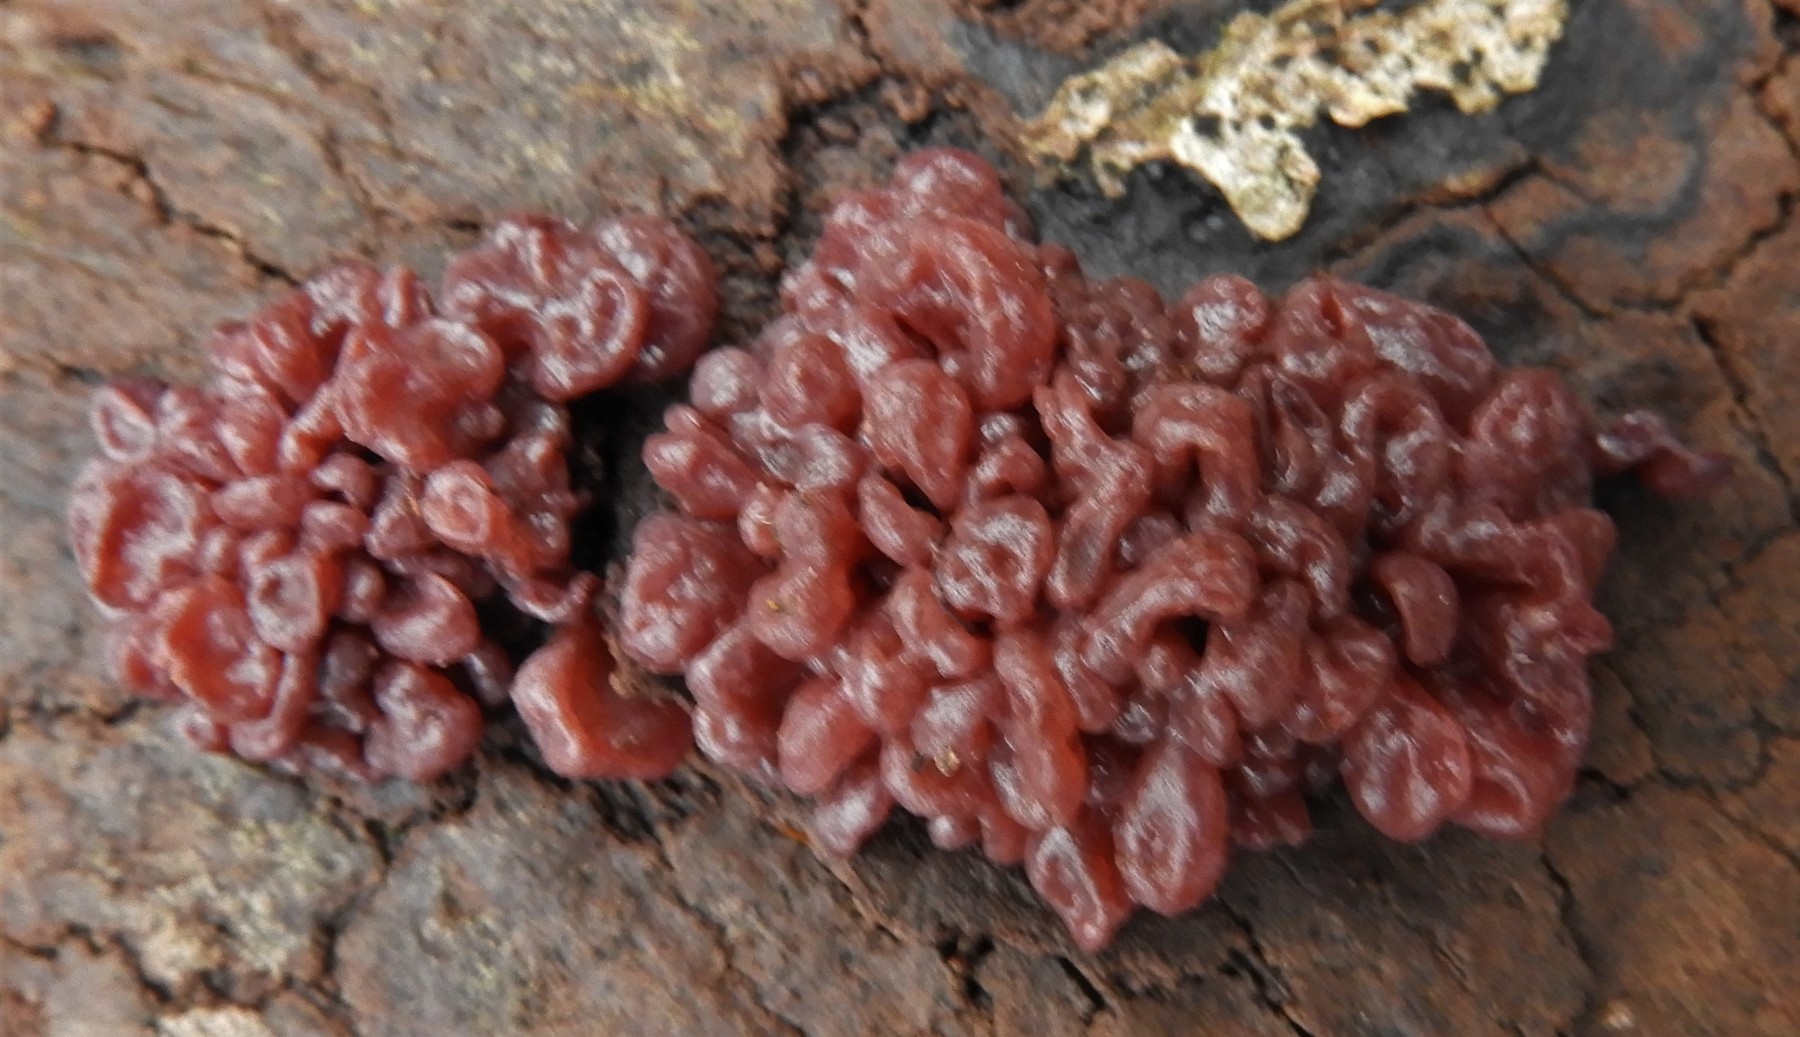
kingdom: Fungi
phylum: Ascomycota
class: Leotiomycetes
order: Helotiales
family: Gelatinodiscaceae
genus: Ascocoryne
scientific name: Ascocoryne sarcoides
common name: rødlilla sejskive
